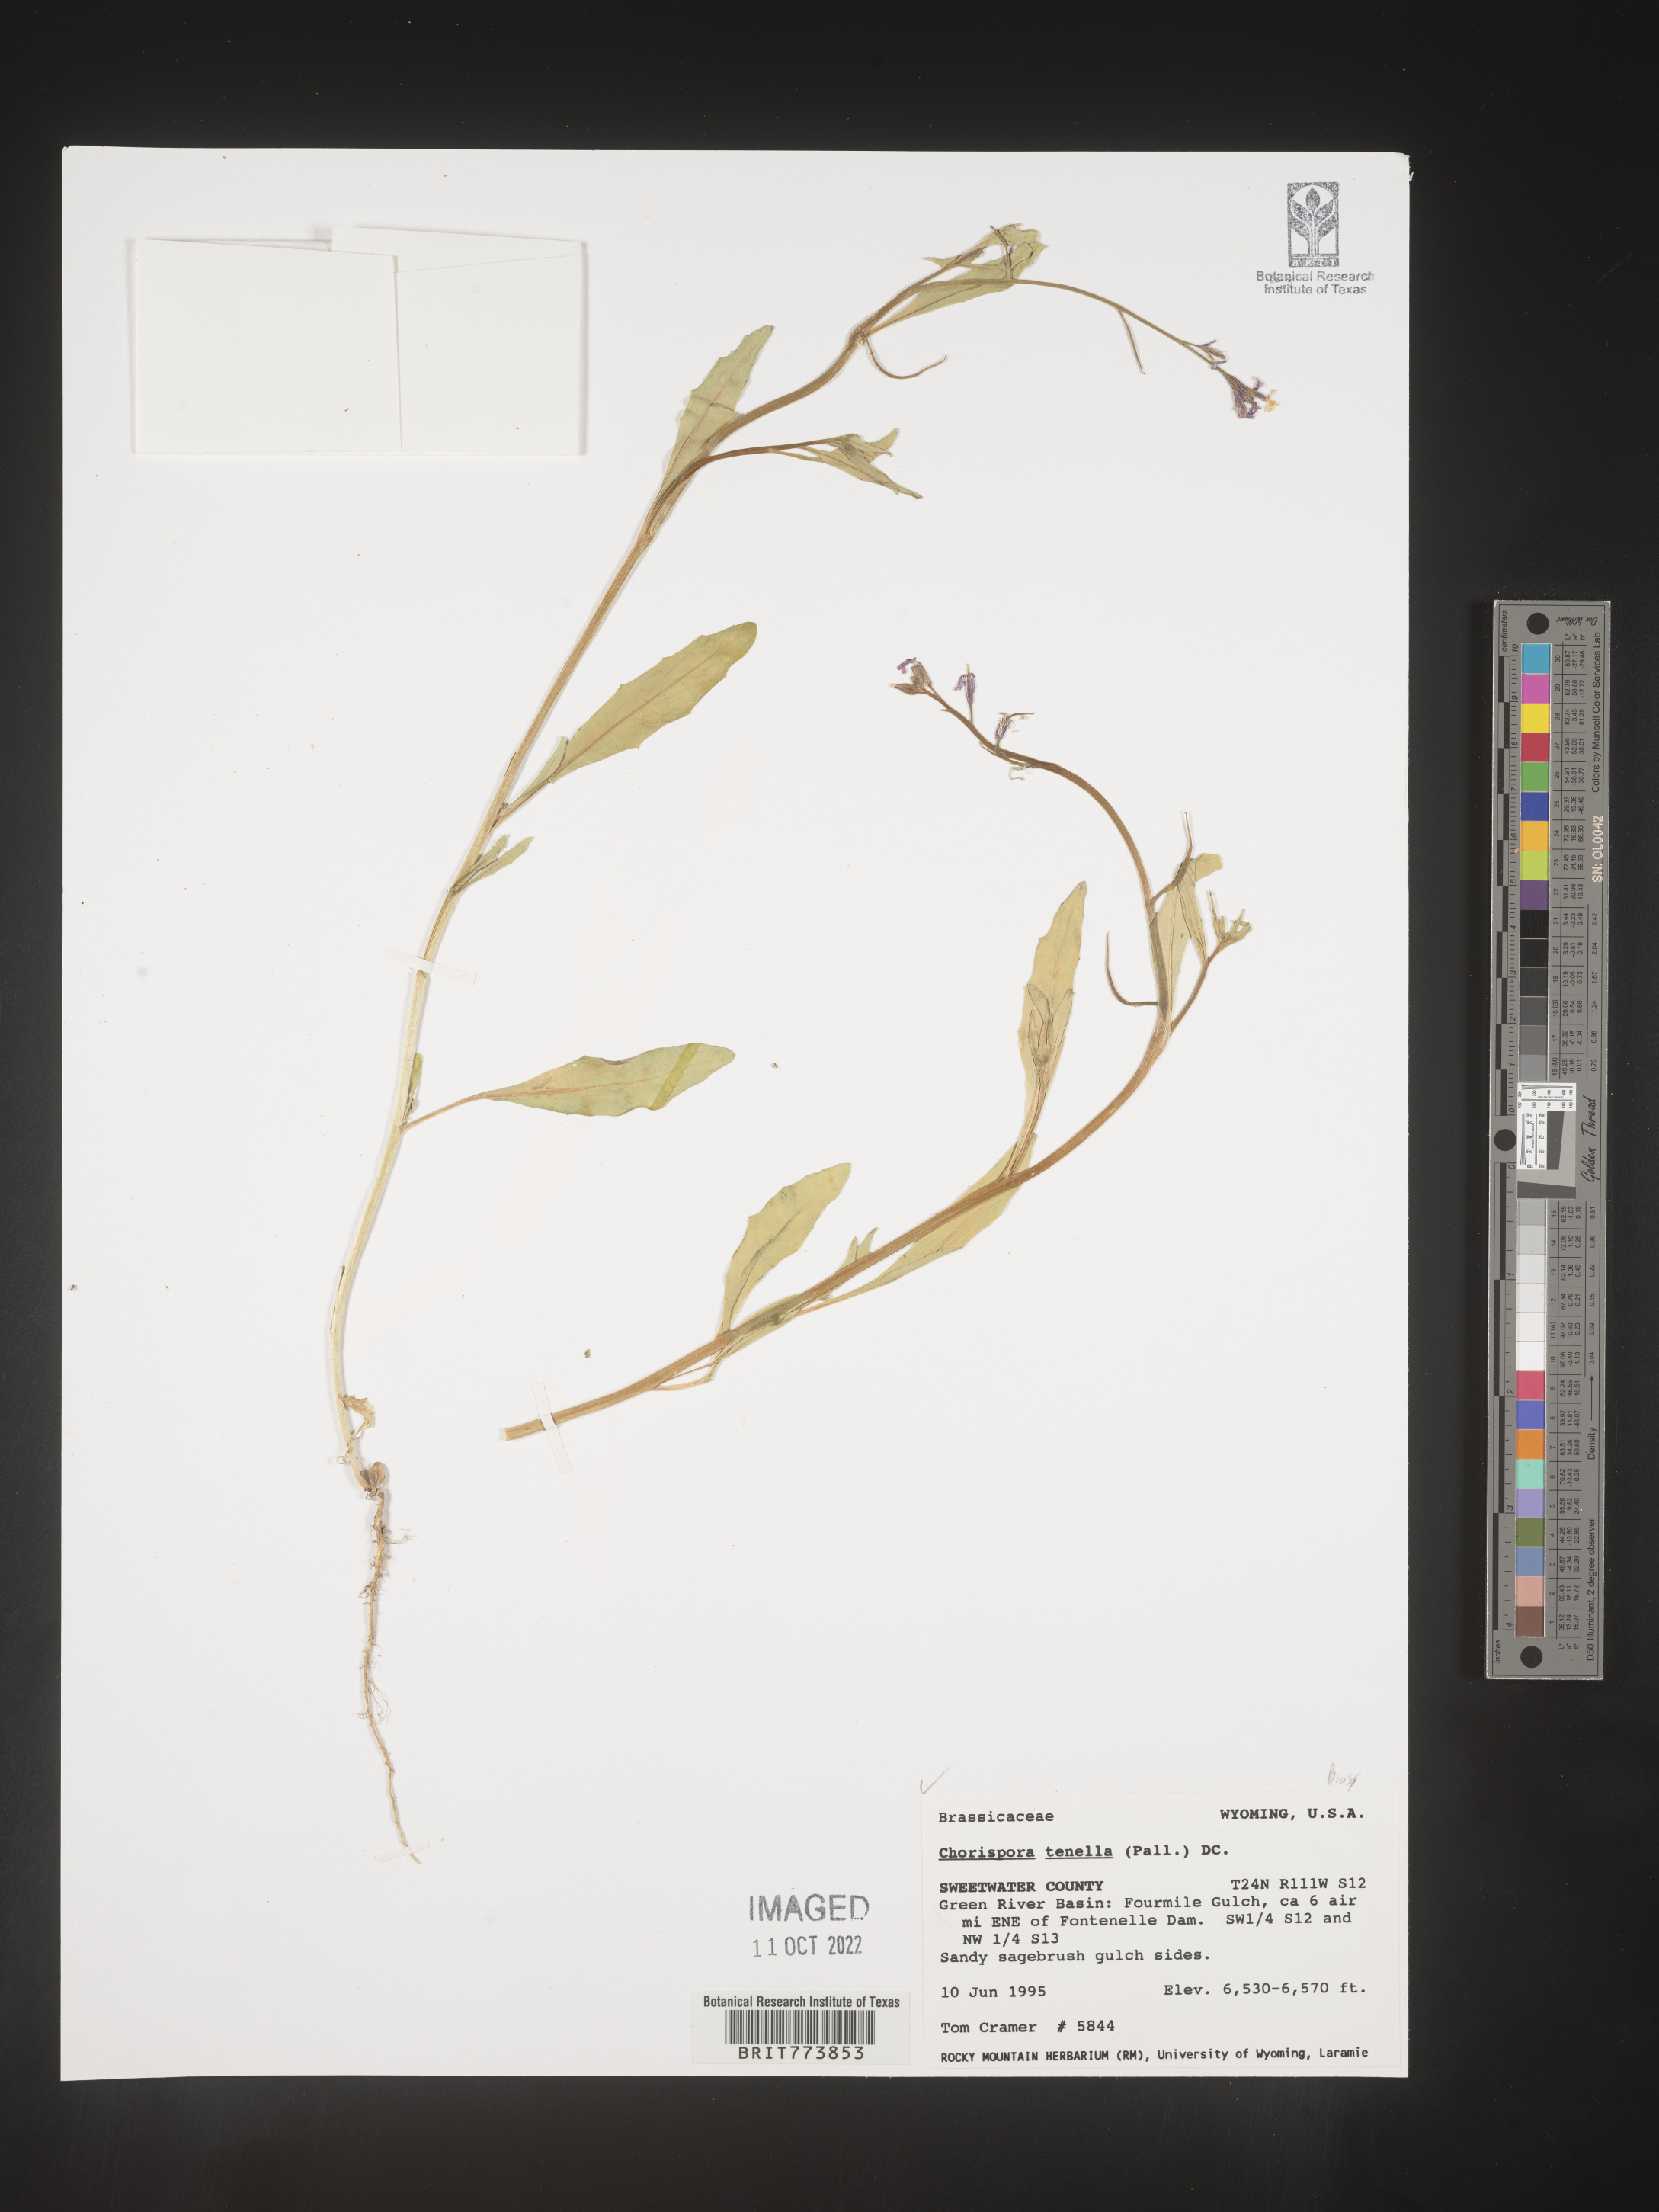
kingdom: Plantae
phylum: Tracheophyta
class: Magnoliopsida
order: Brassicales
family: Brassicaceae
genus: Chorispora
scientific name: Chorispora tenella
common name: Crossflower
